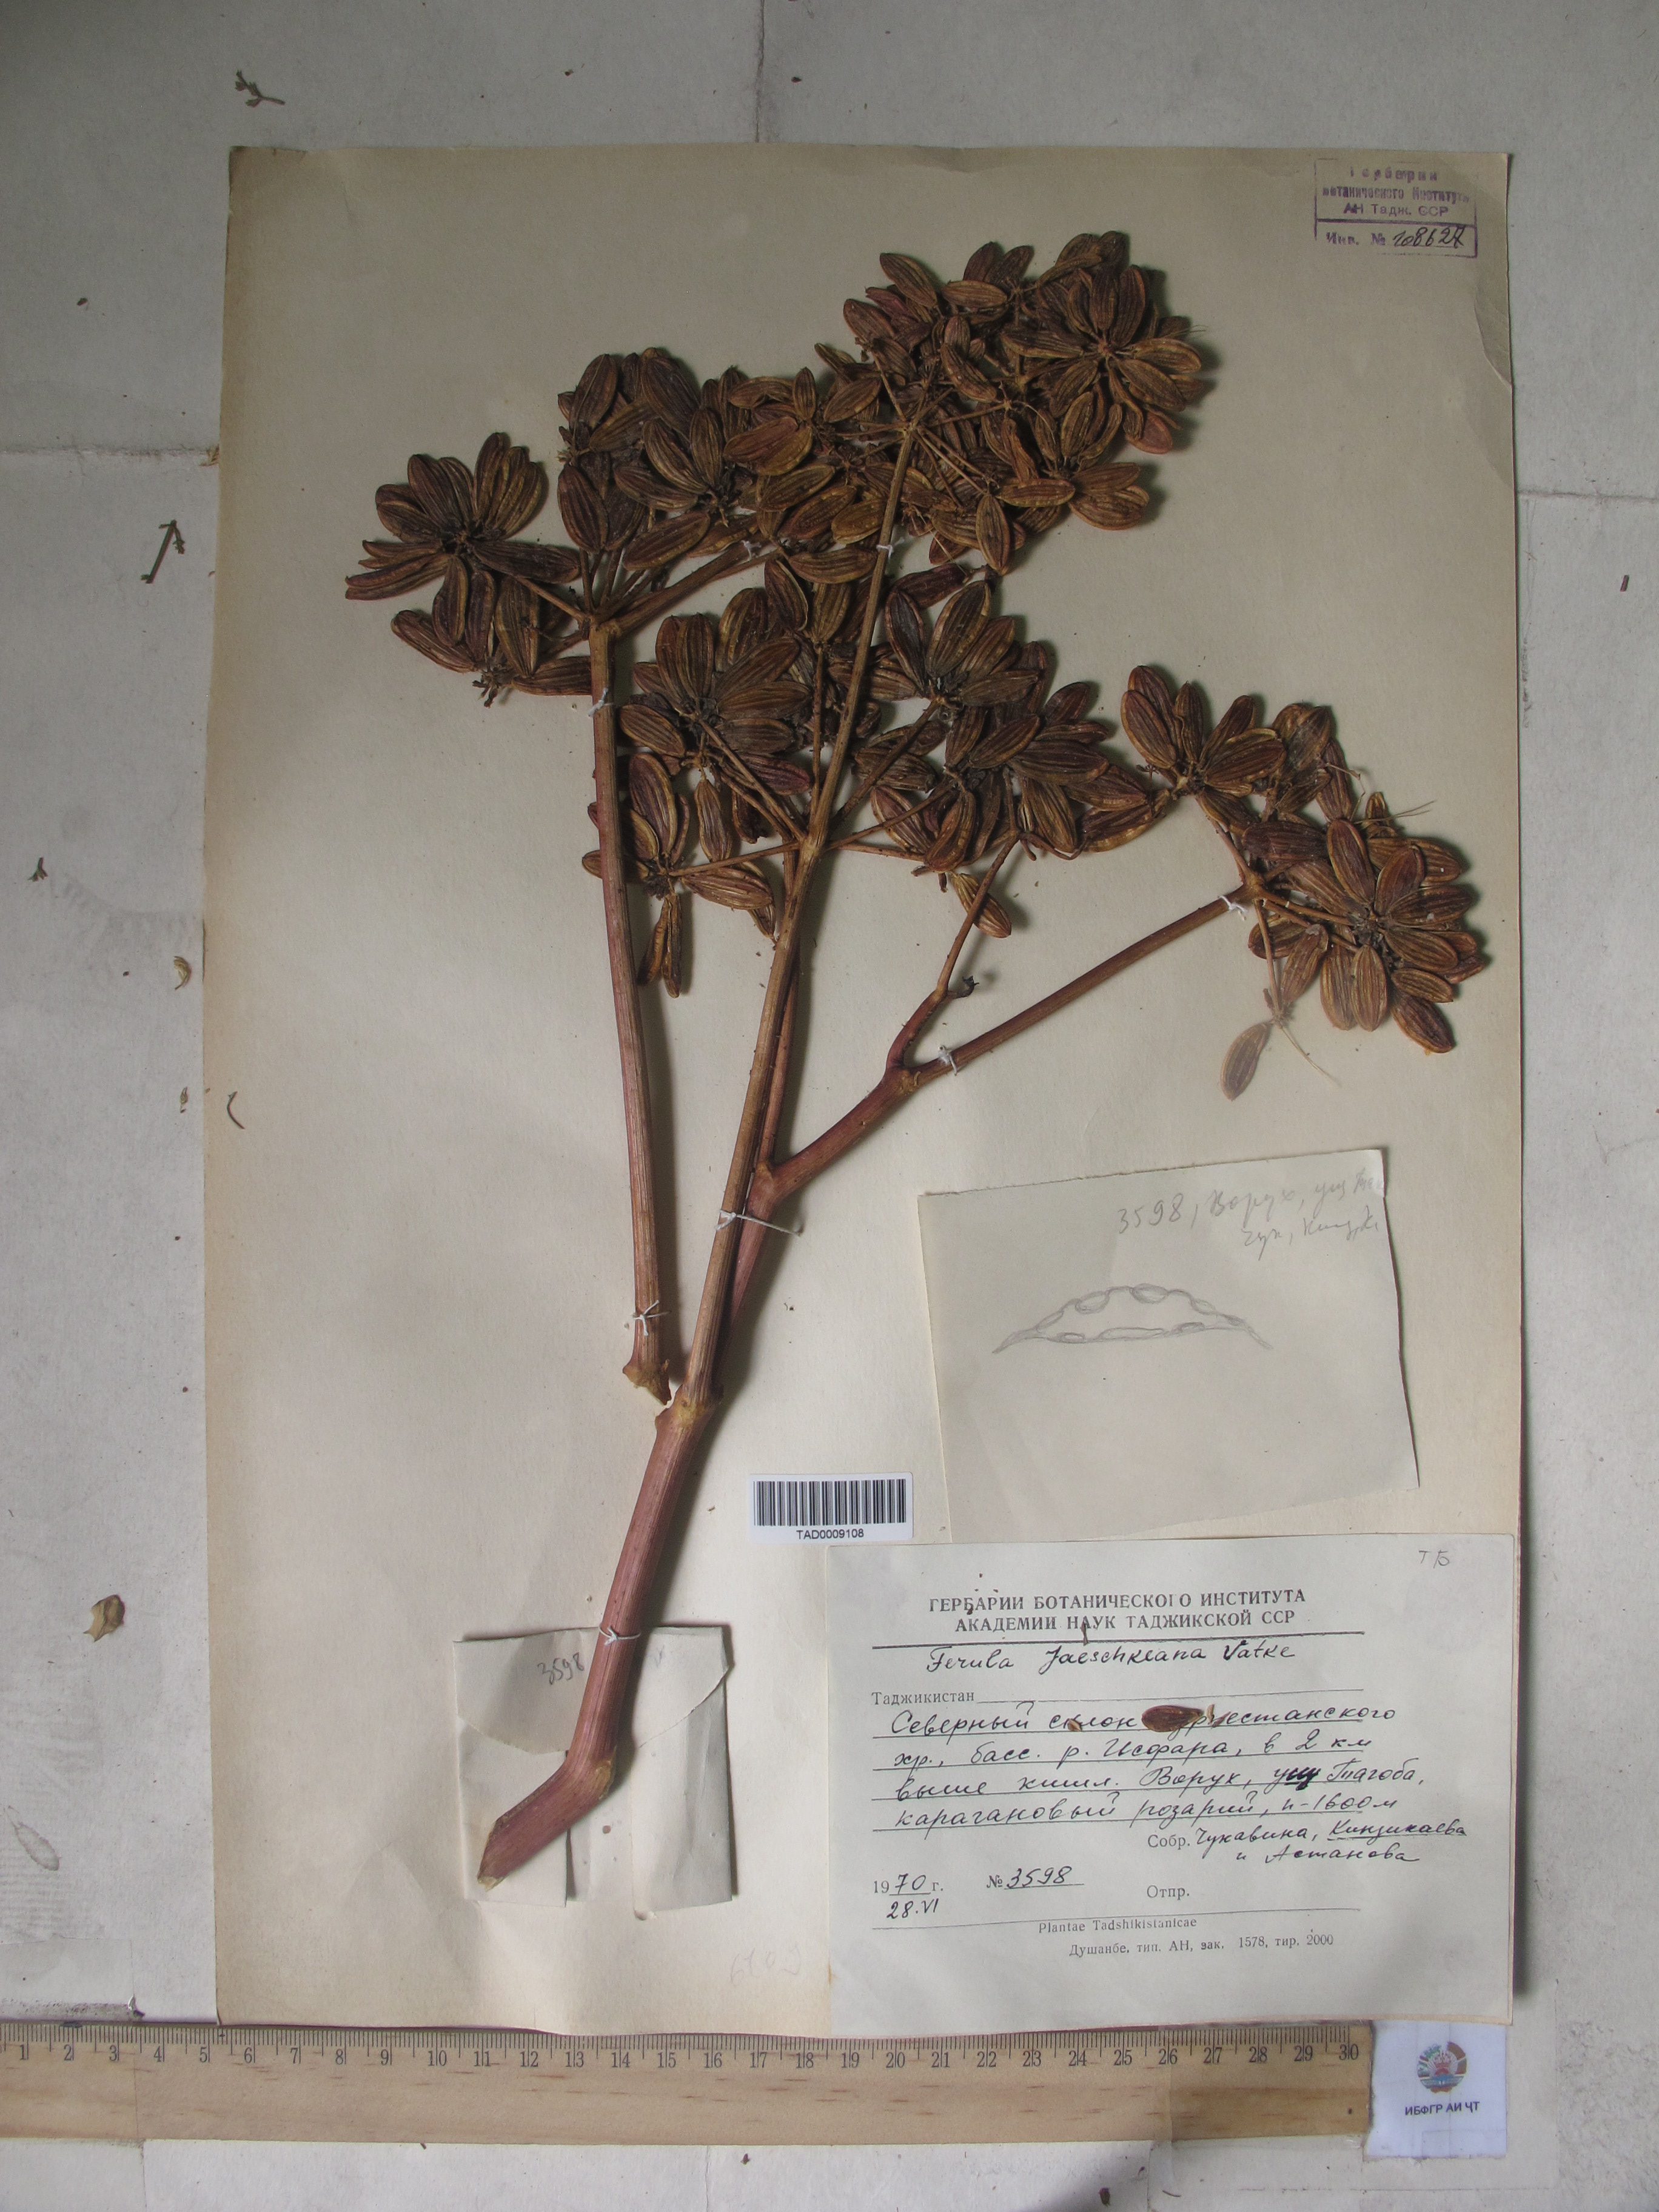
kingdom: Plantae
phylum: Tracheophyta
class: Magnoliopsida
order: Apiales
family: Apiaceae
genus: Ferula
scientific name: Ferula jaeschkeana
